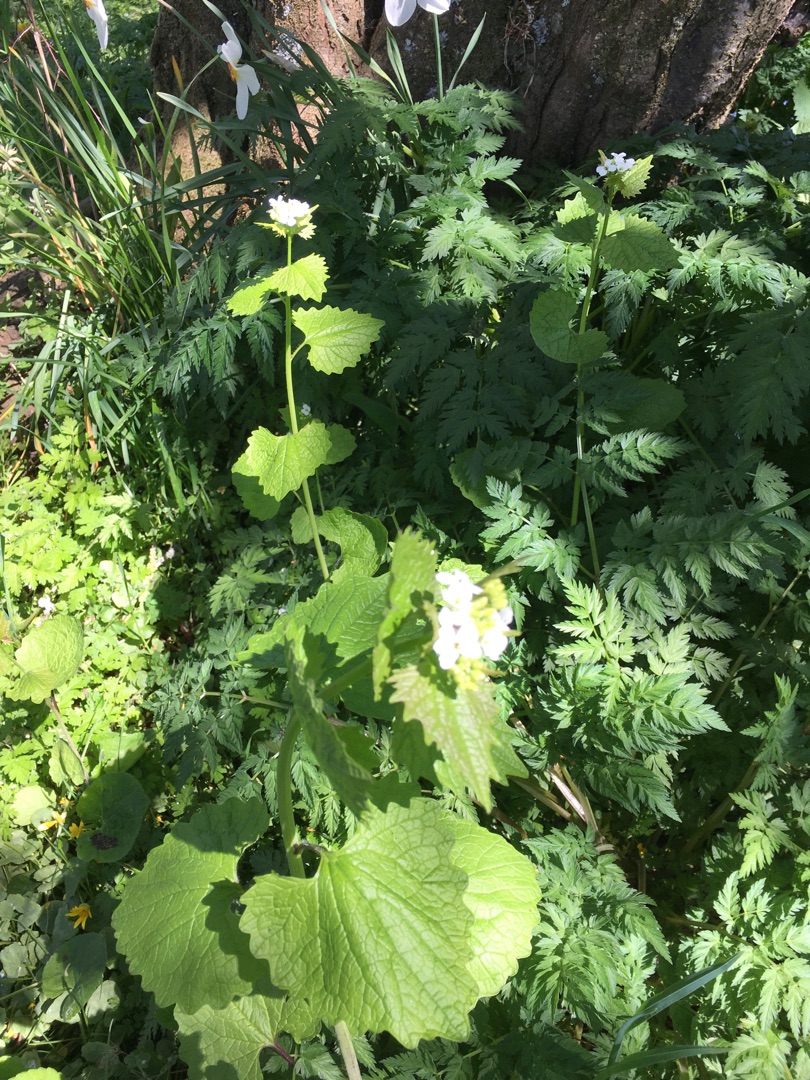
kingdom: Plantae
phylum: Tracheophyta
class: Magnoliopsida
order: Brassicales
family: Brassicaceae
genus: Alliaria
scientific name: Alliaria petiolata
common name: Løgkarse
